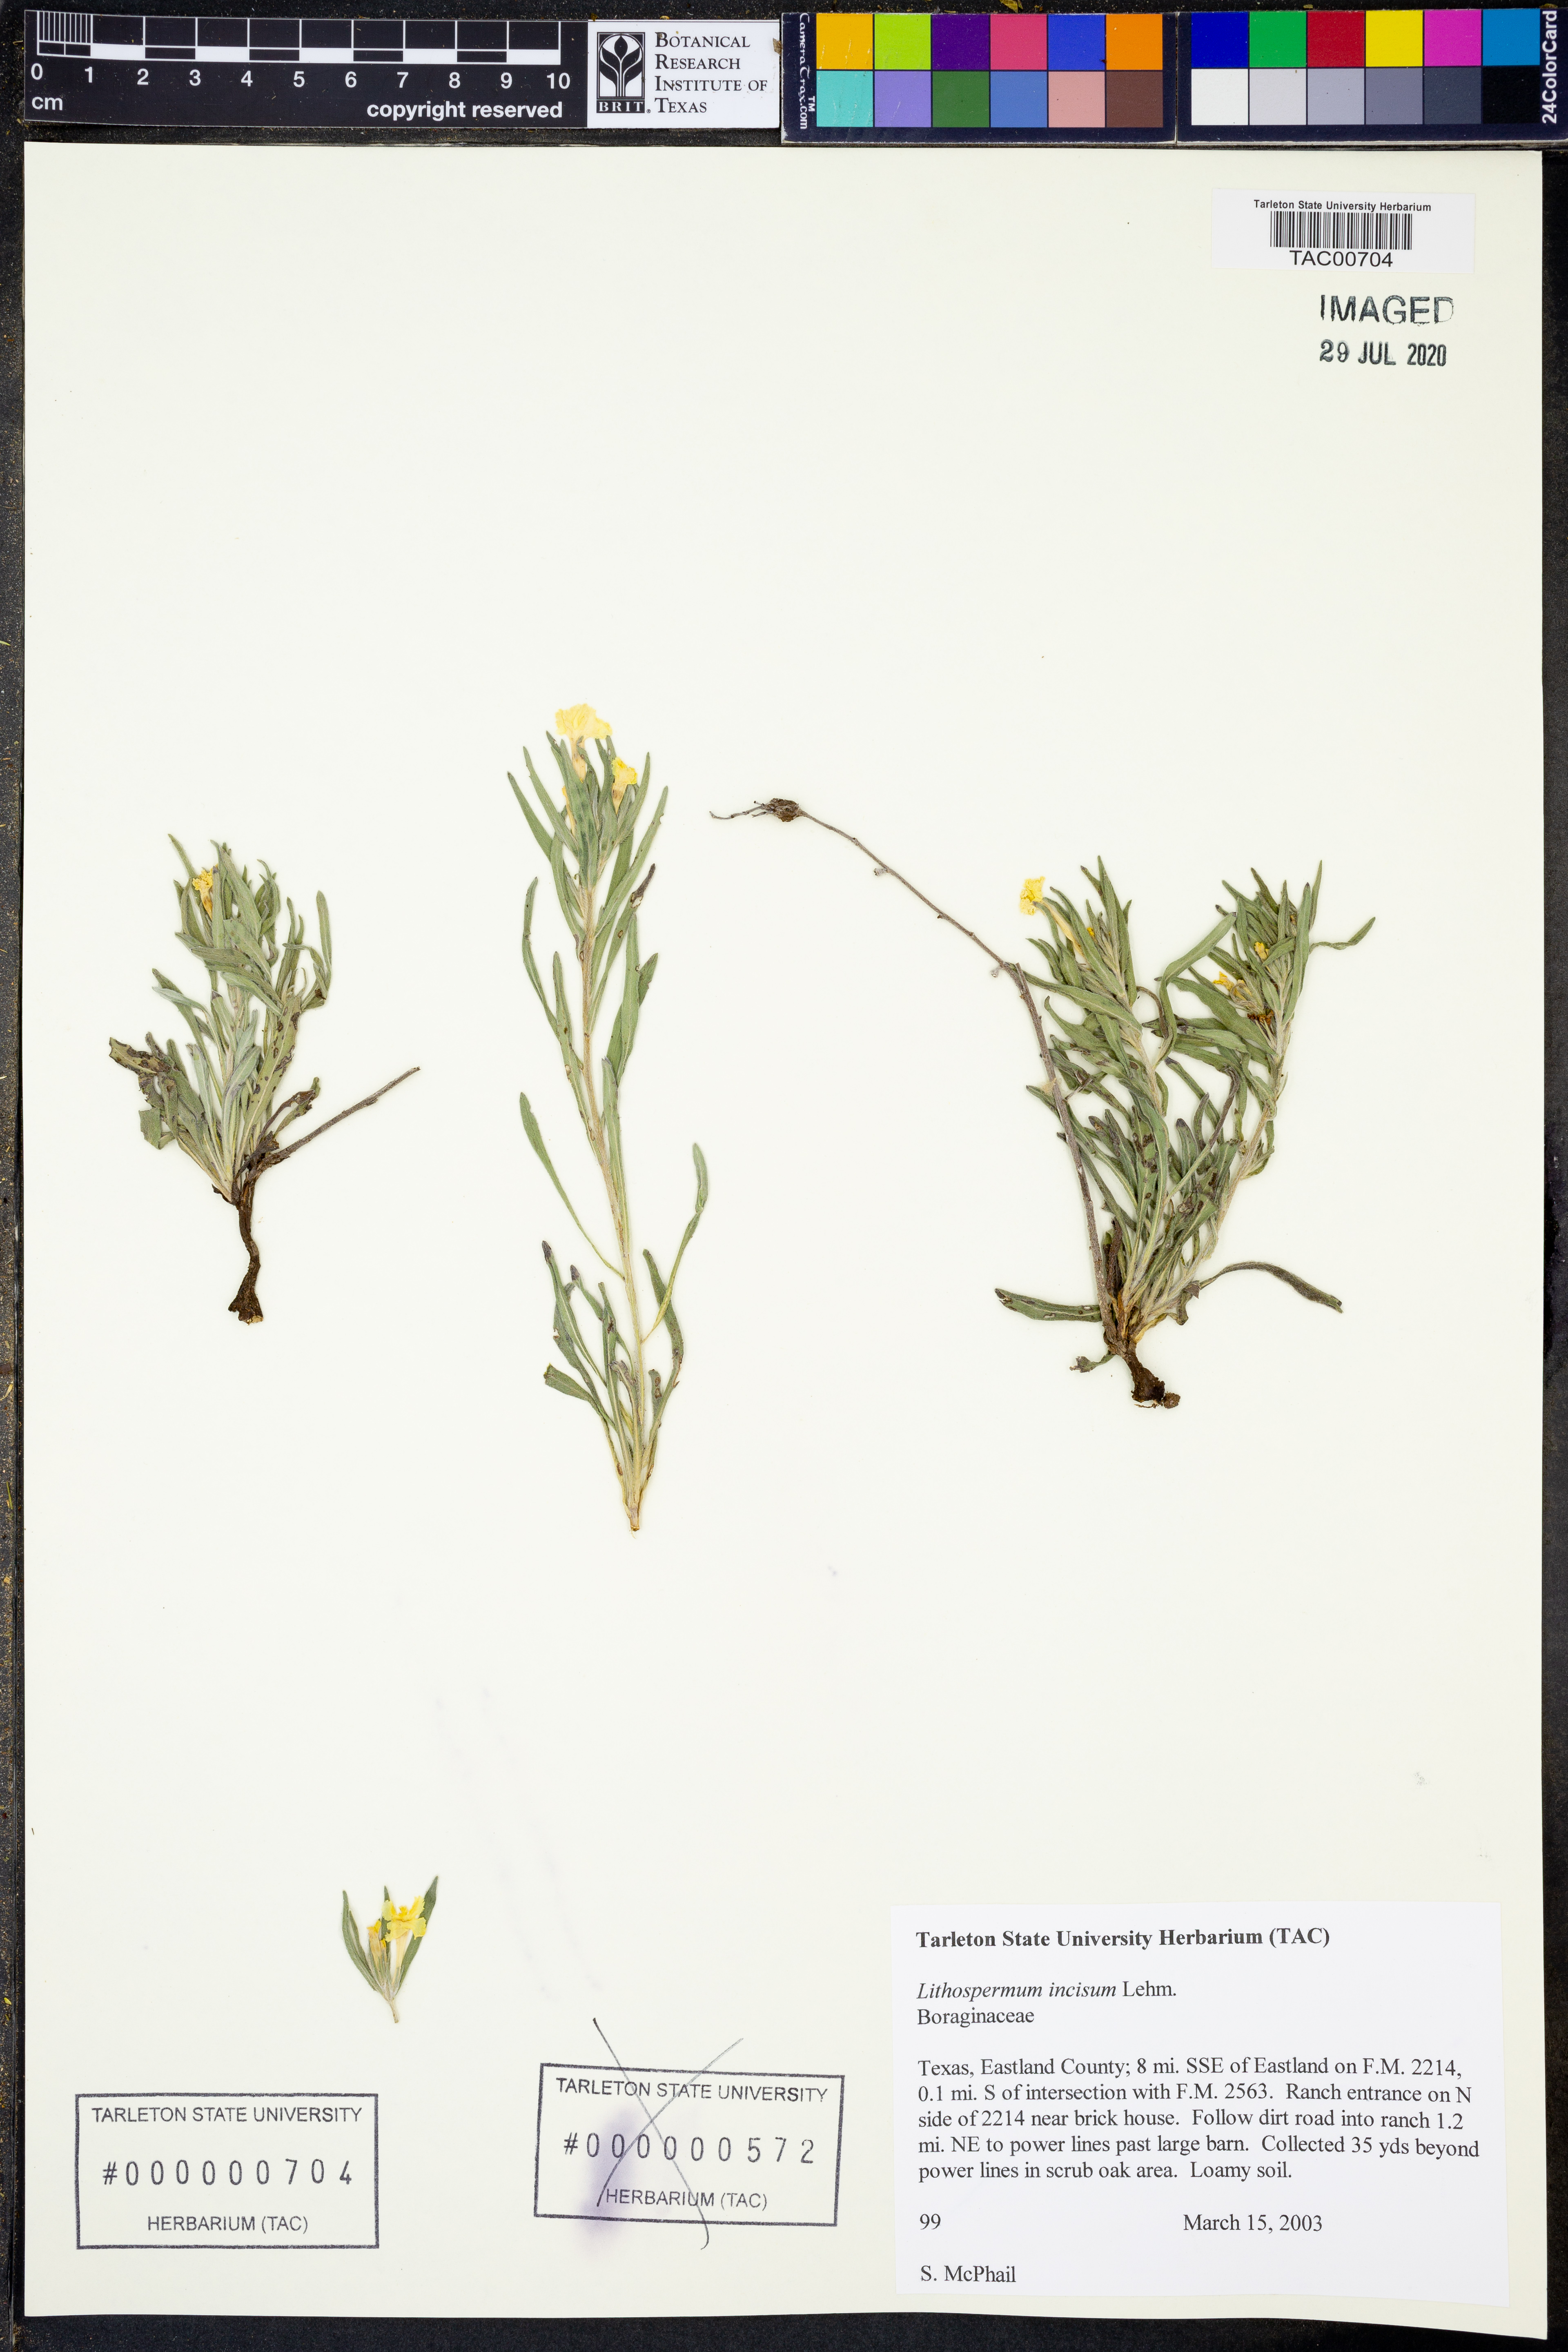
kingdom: Plantae
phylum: Tracheophyta
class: Magnoliopsida
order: Boraginales
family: Boraginaceae
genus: Lithospermum
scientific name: Lithospermum incisum
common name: Fringed gromwell
